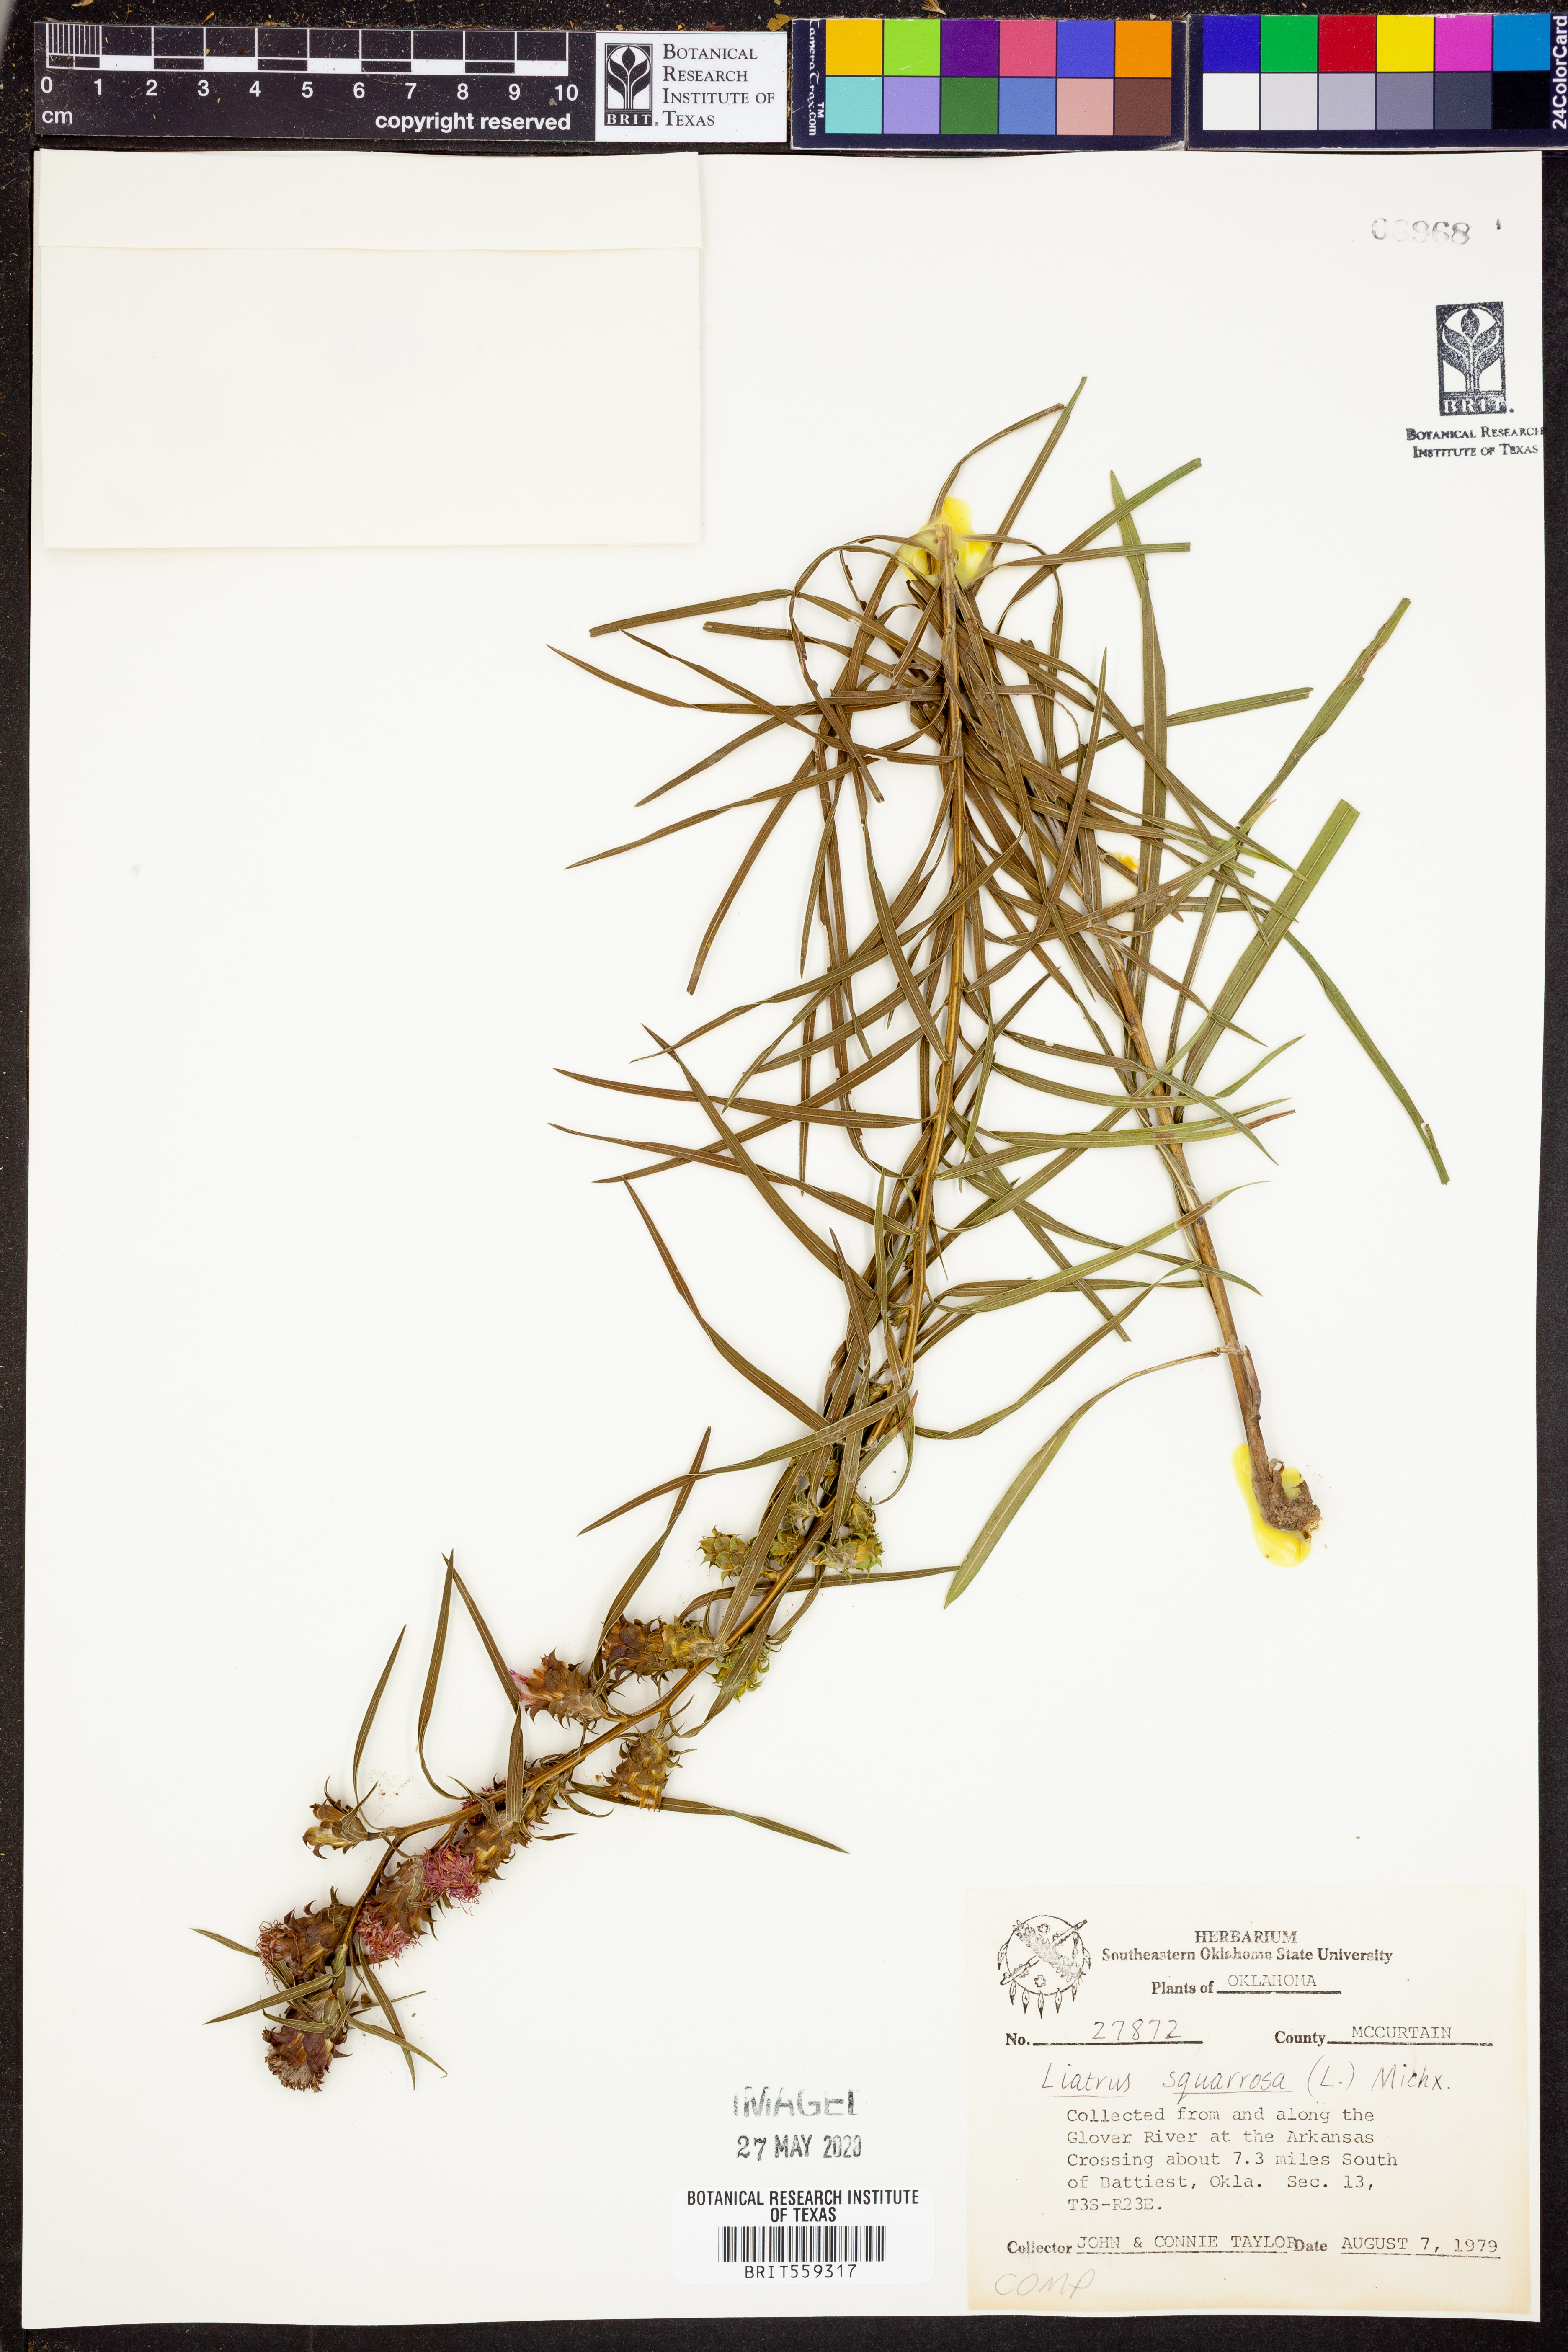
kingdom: Plantae
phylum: Tracheophyta
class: Magnoliopsida
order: Asterales
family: Asteraceae
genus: Liatris
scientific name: Liatris squarrosa
